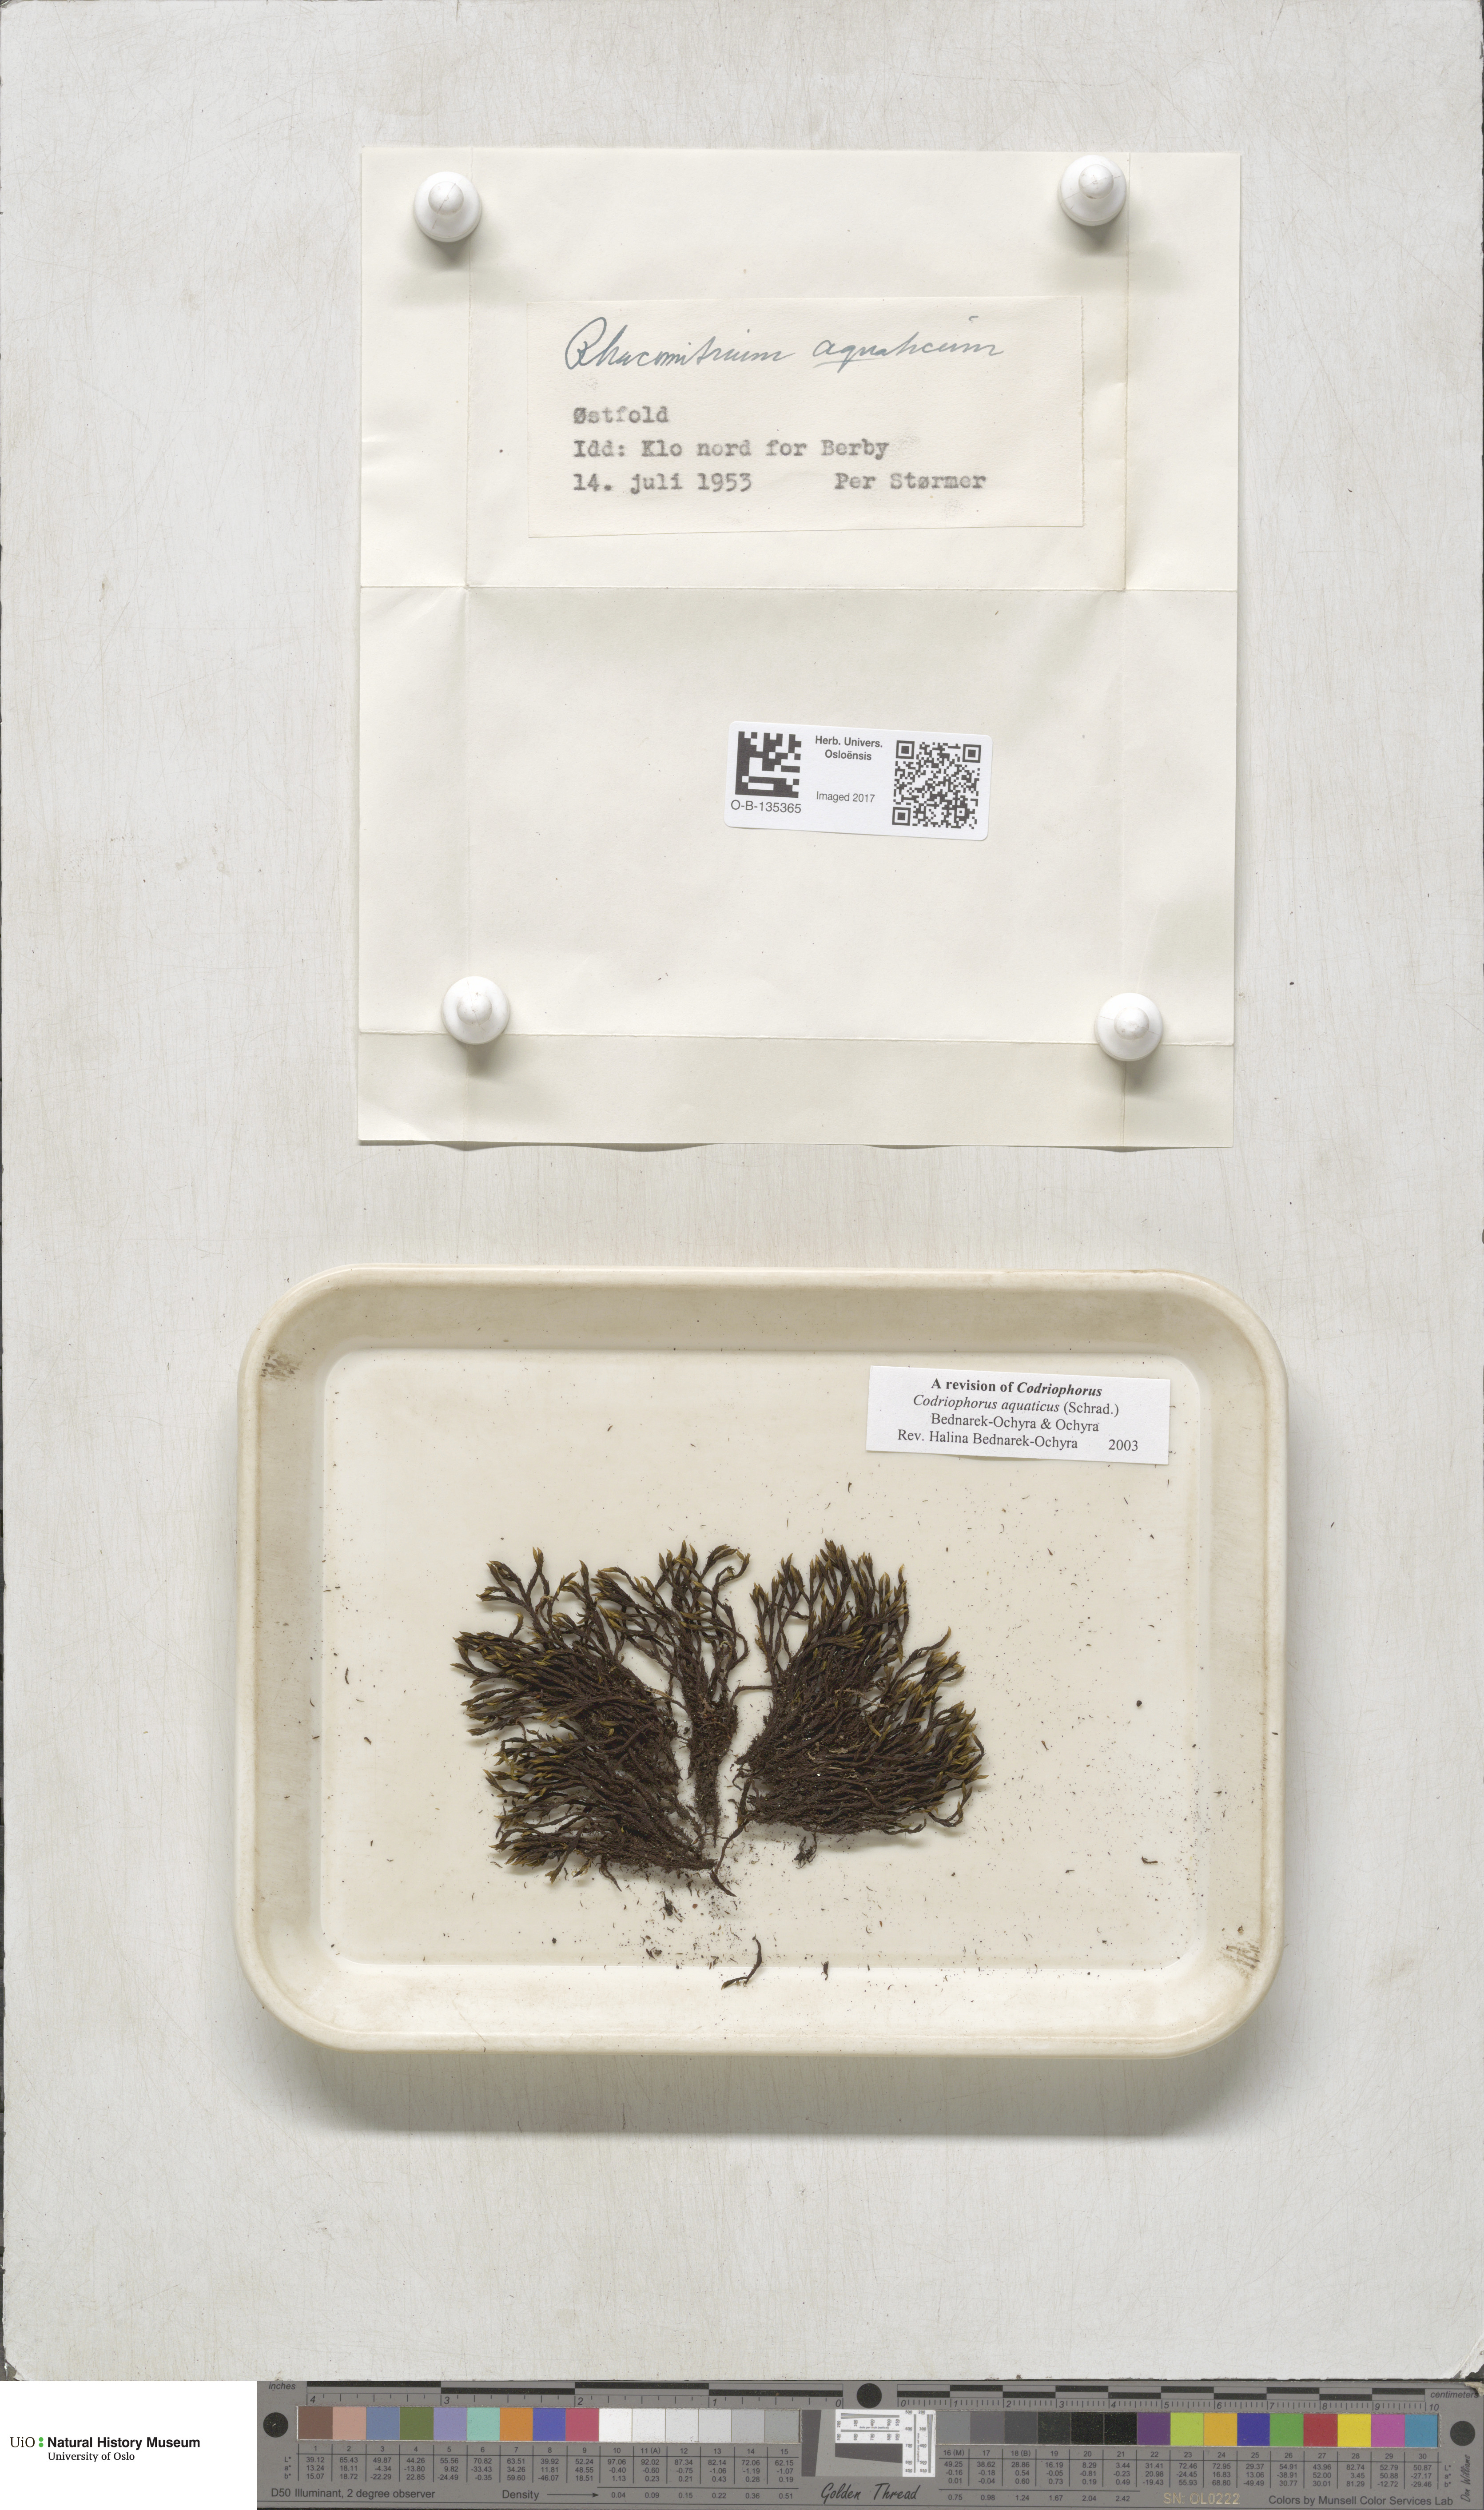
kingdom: Plantae
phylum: Bryophyta
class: Bryopsida
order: Grimmiales
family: Grimmiaceae
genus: Codriophorus
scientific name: Codriophorus aquaticus
